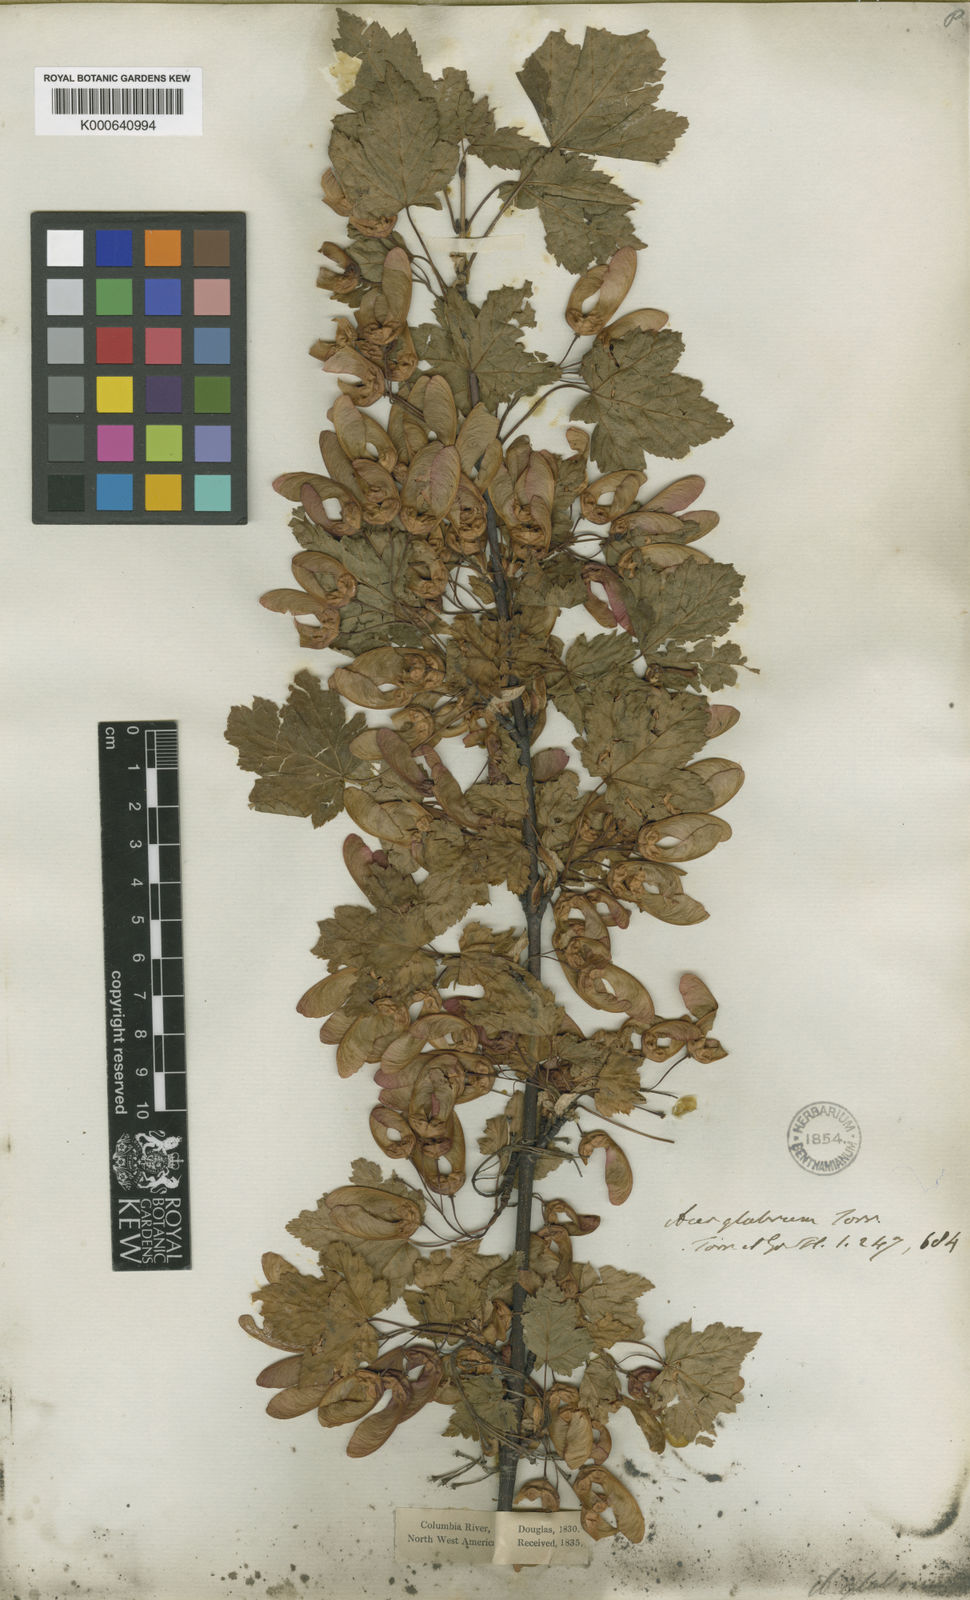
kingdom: Plantae
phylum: Tracheophyta
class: Magnoliopsida
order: Sapindales
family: Sapindaceae
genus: Acer
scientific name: Acer glabrum
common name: Rocky mountain maple
